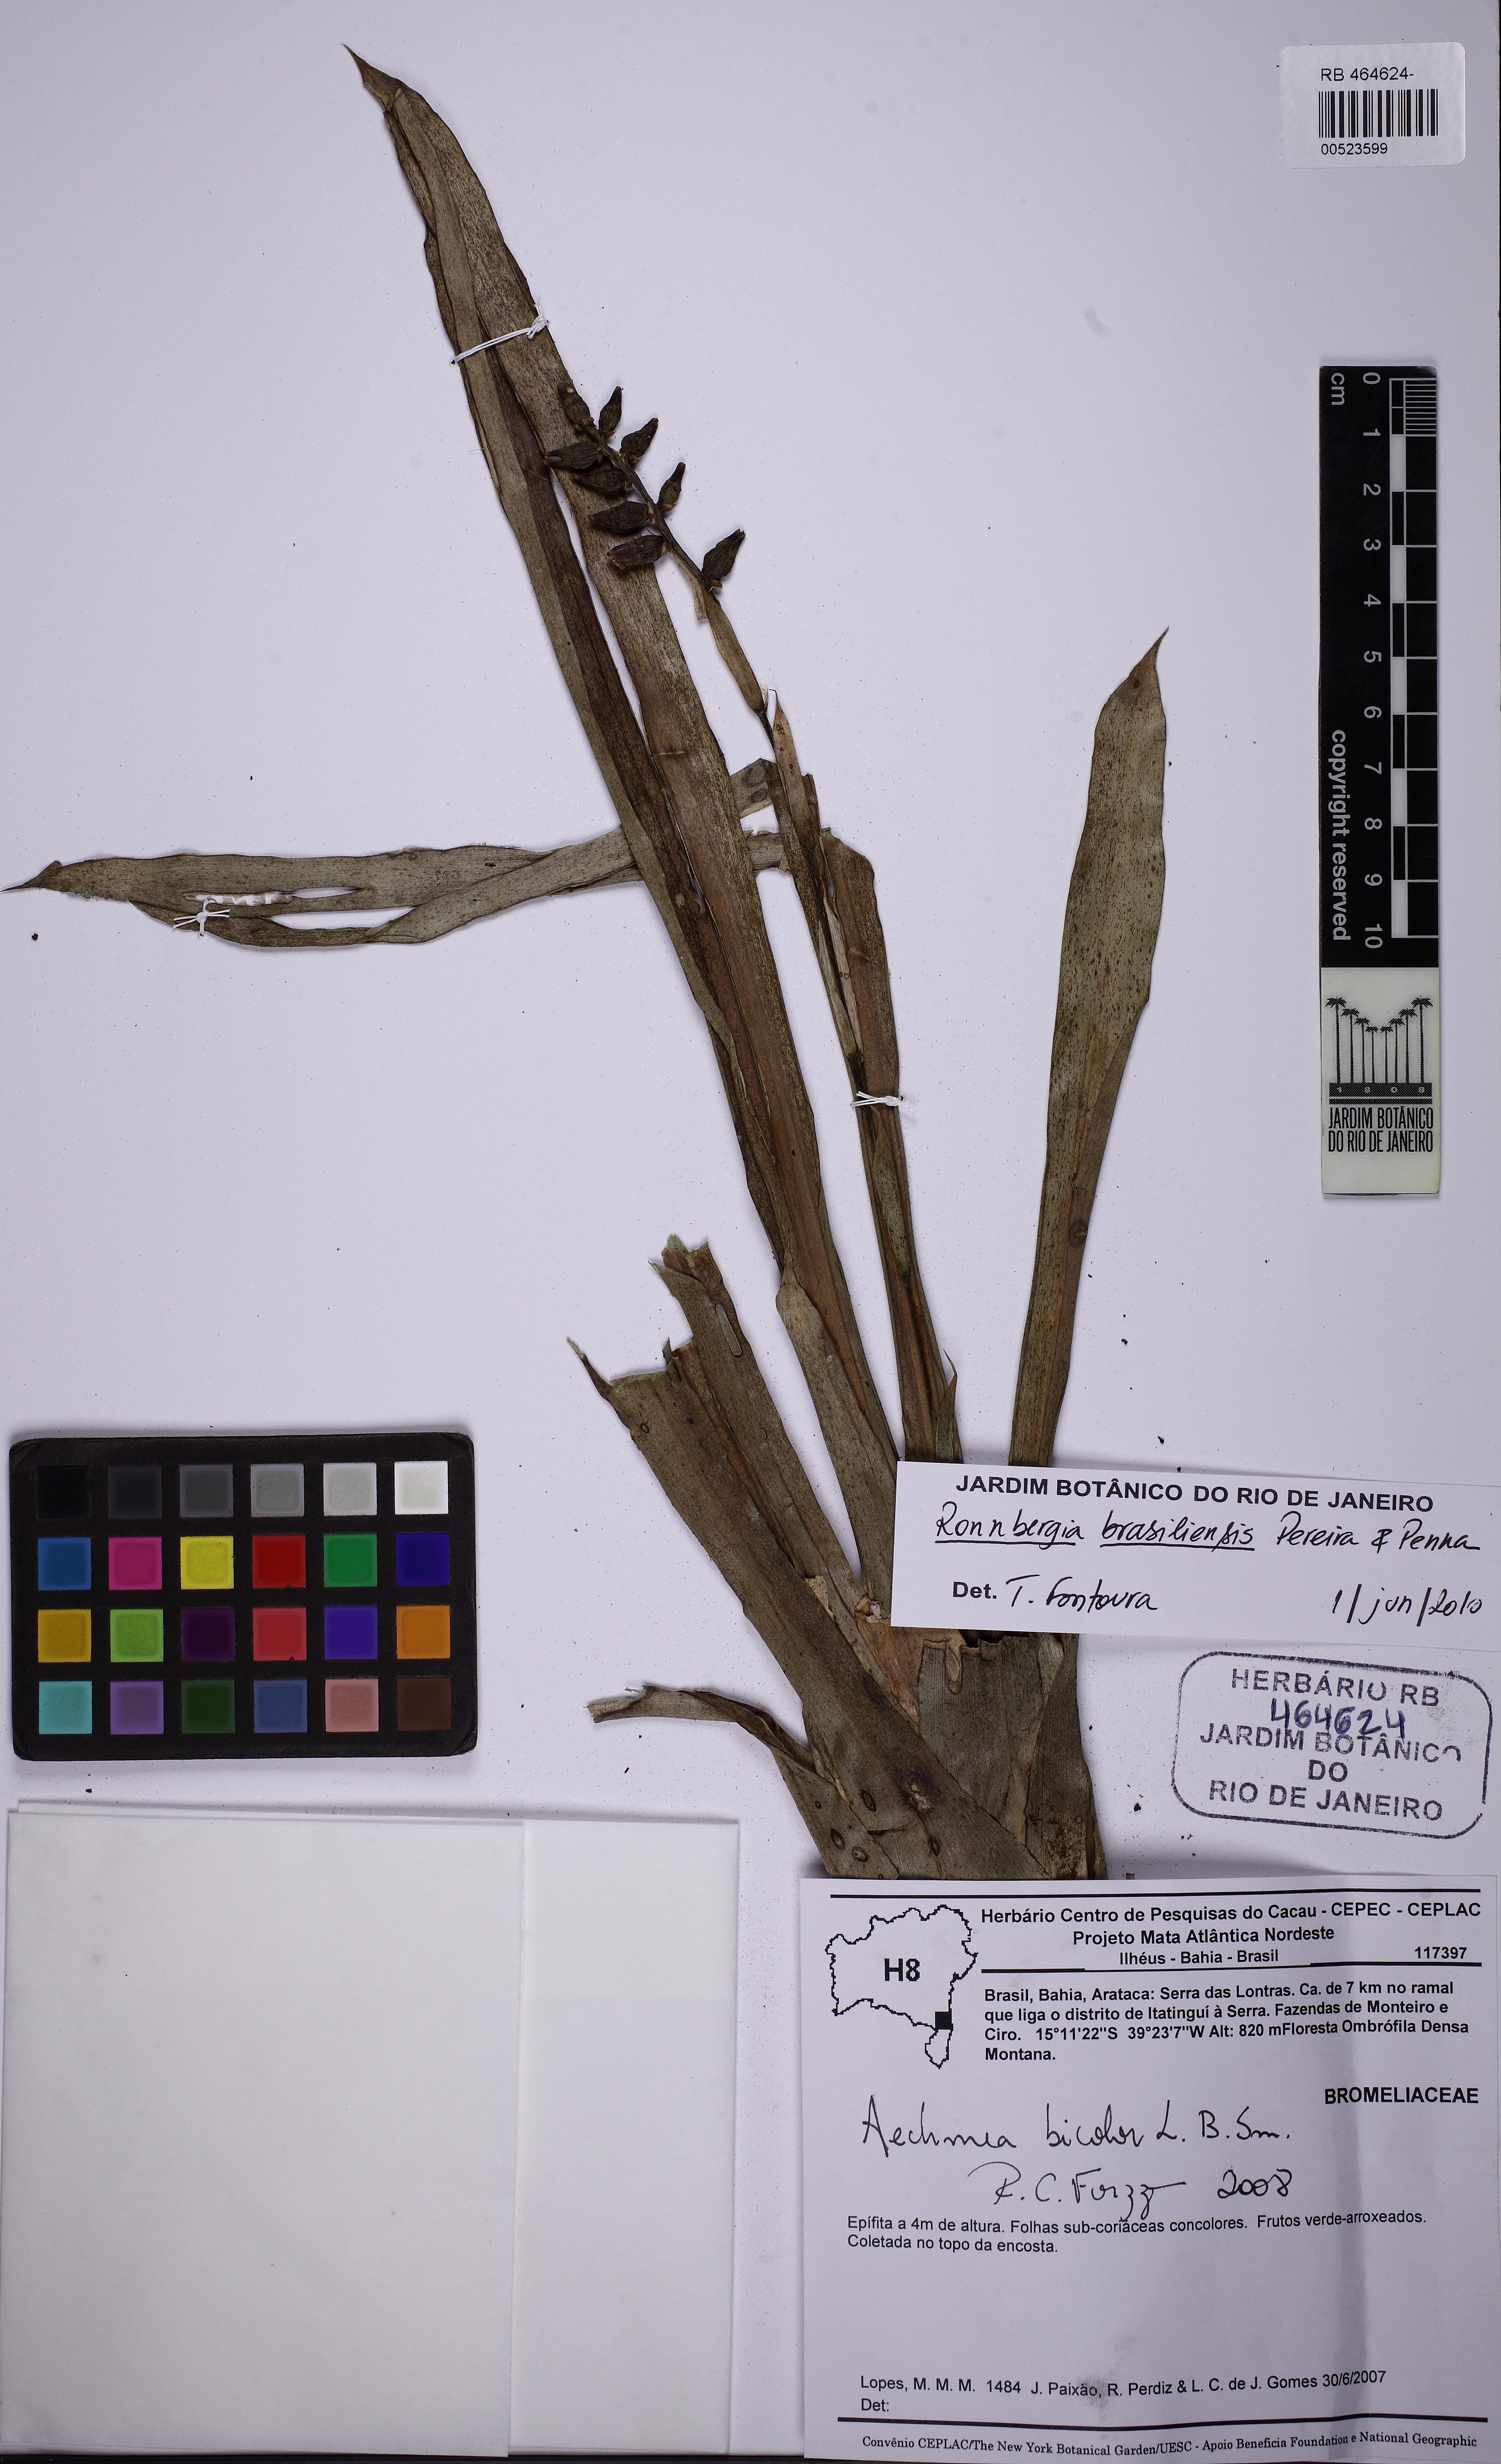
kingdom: Plantae
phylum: Tracheophyta
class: Liliopsida
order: Poales
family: Bromeliaceae
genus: Wittmackia
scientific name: Wittmackia brasiliensis
